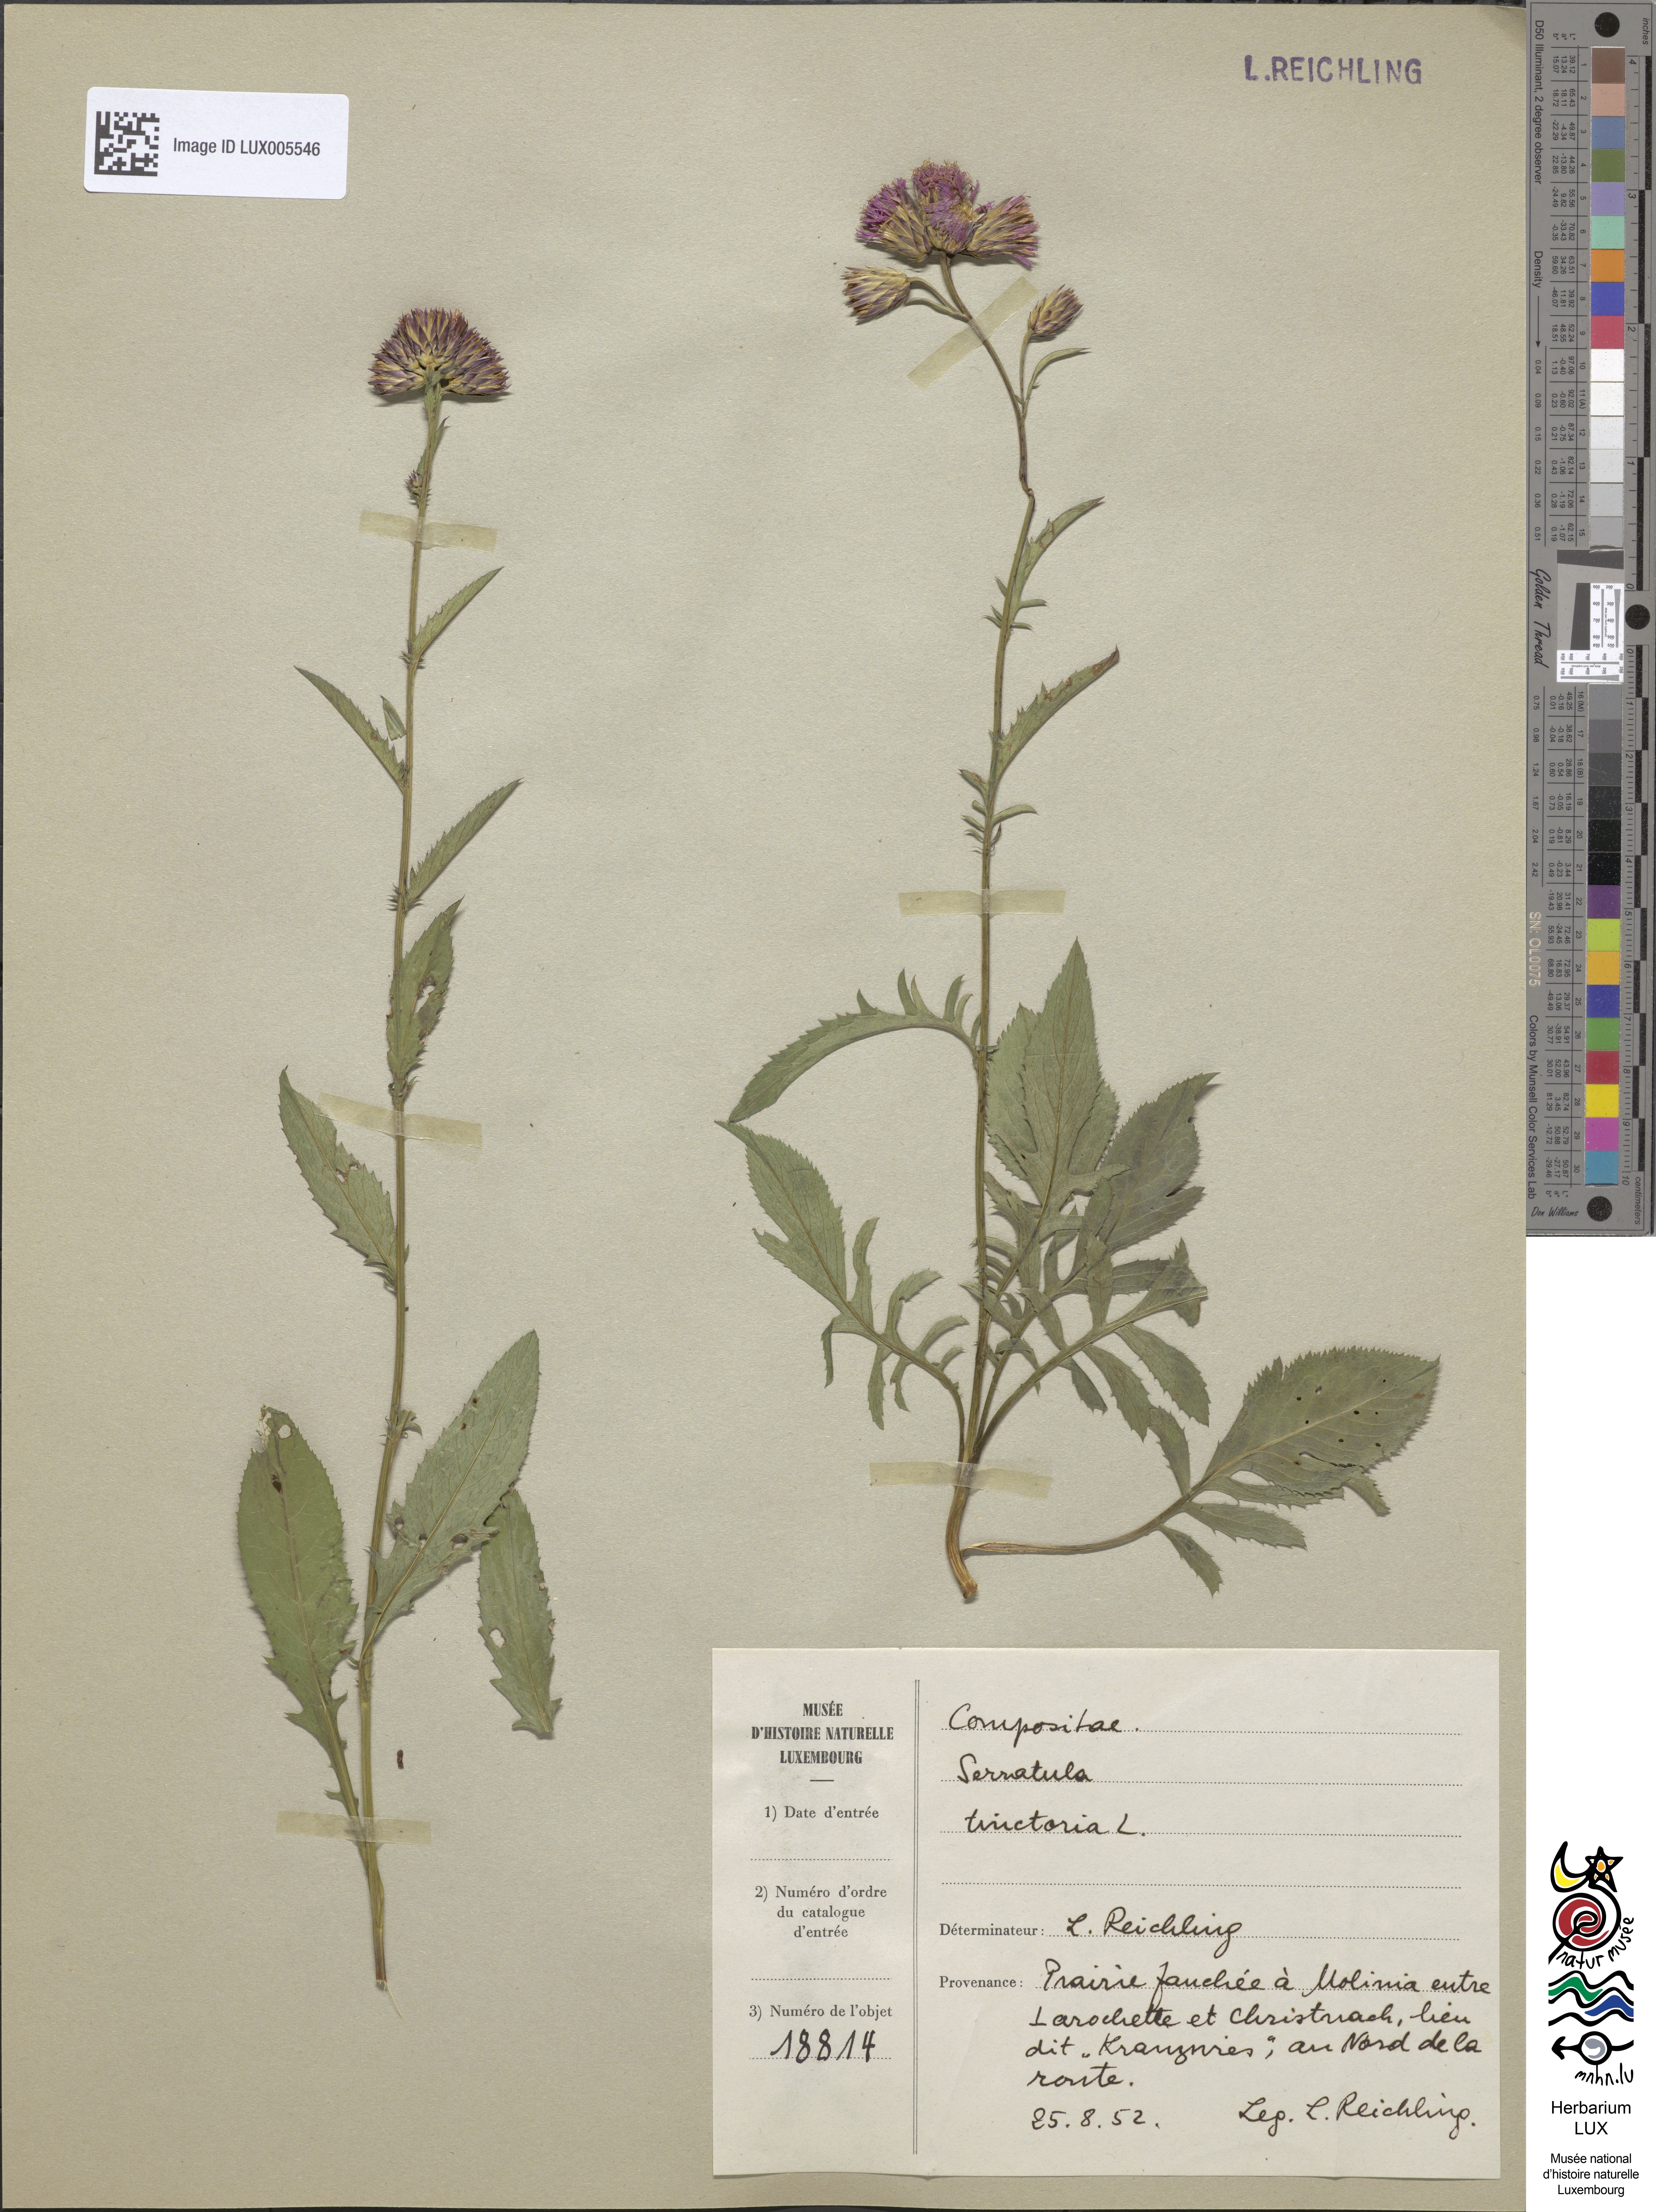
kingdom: Plantae
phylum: Tracheophyta
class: Magnoliopsida
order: Asterales
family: Asteraceae
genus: Serratula
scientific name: Serratula tinctoria
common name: Saw-wort
